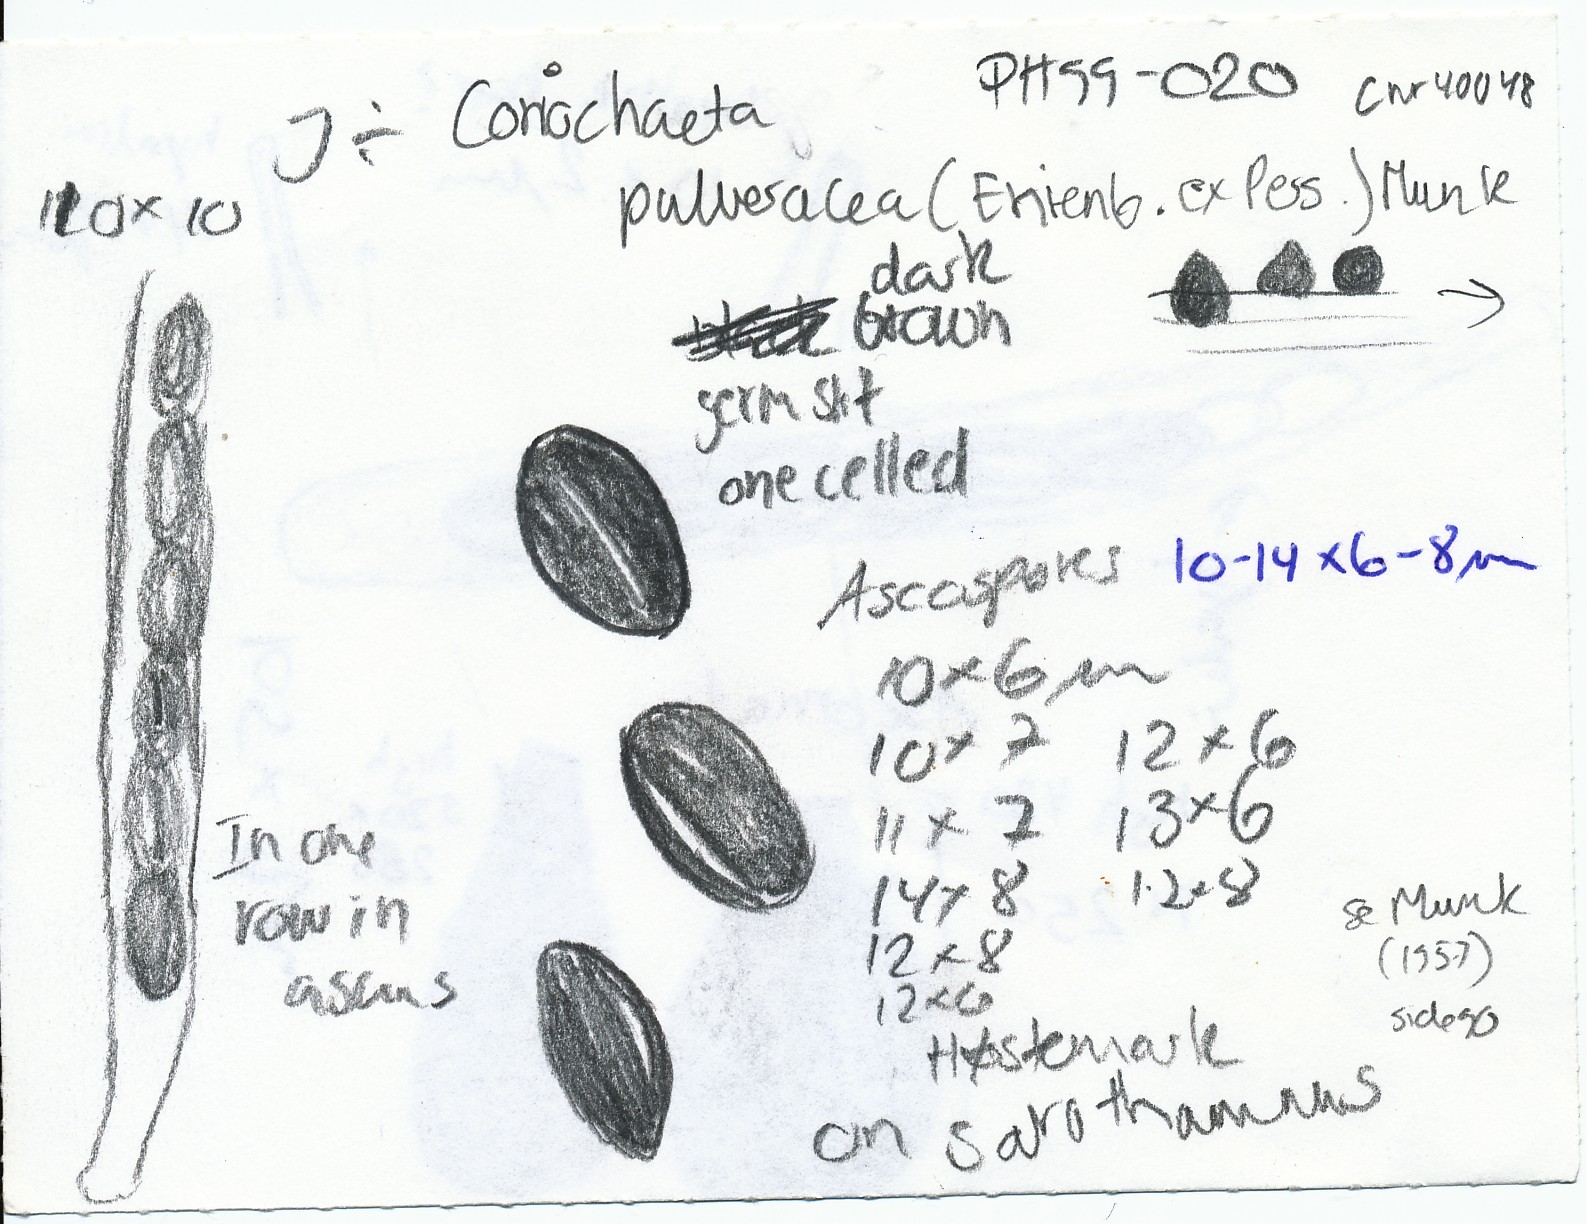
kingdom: Fungi
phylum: Ascomycota
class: Sordariomycetes
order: Coniochaetales
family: Coniochaetaceae
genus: Coniochaeta
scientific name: Coniochaeta pulveracea
